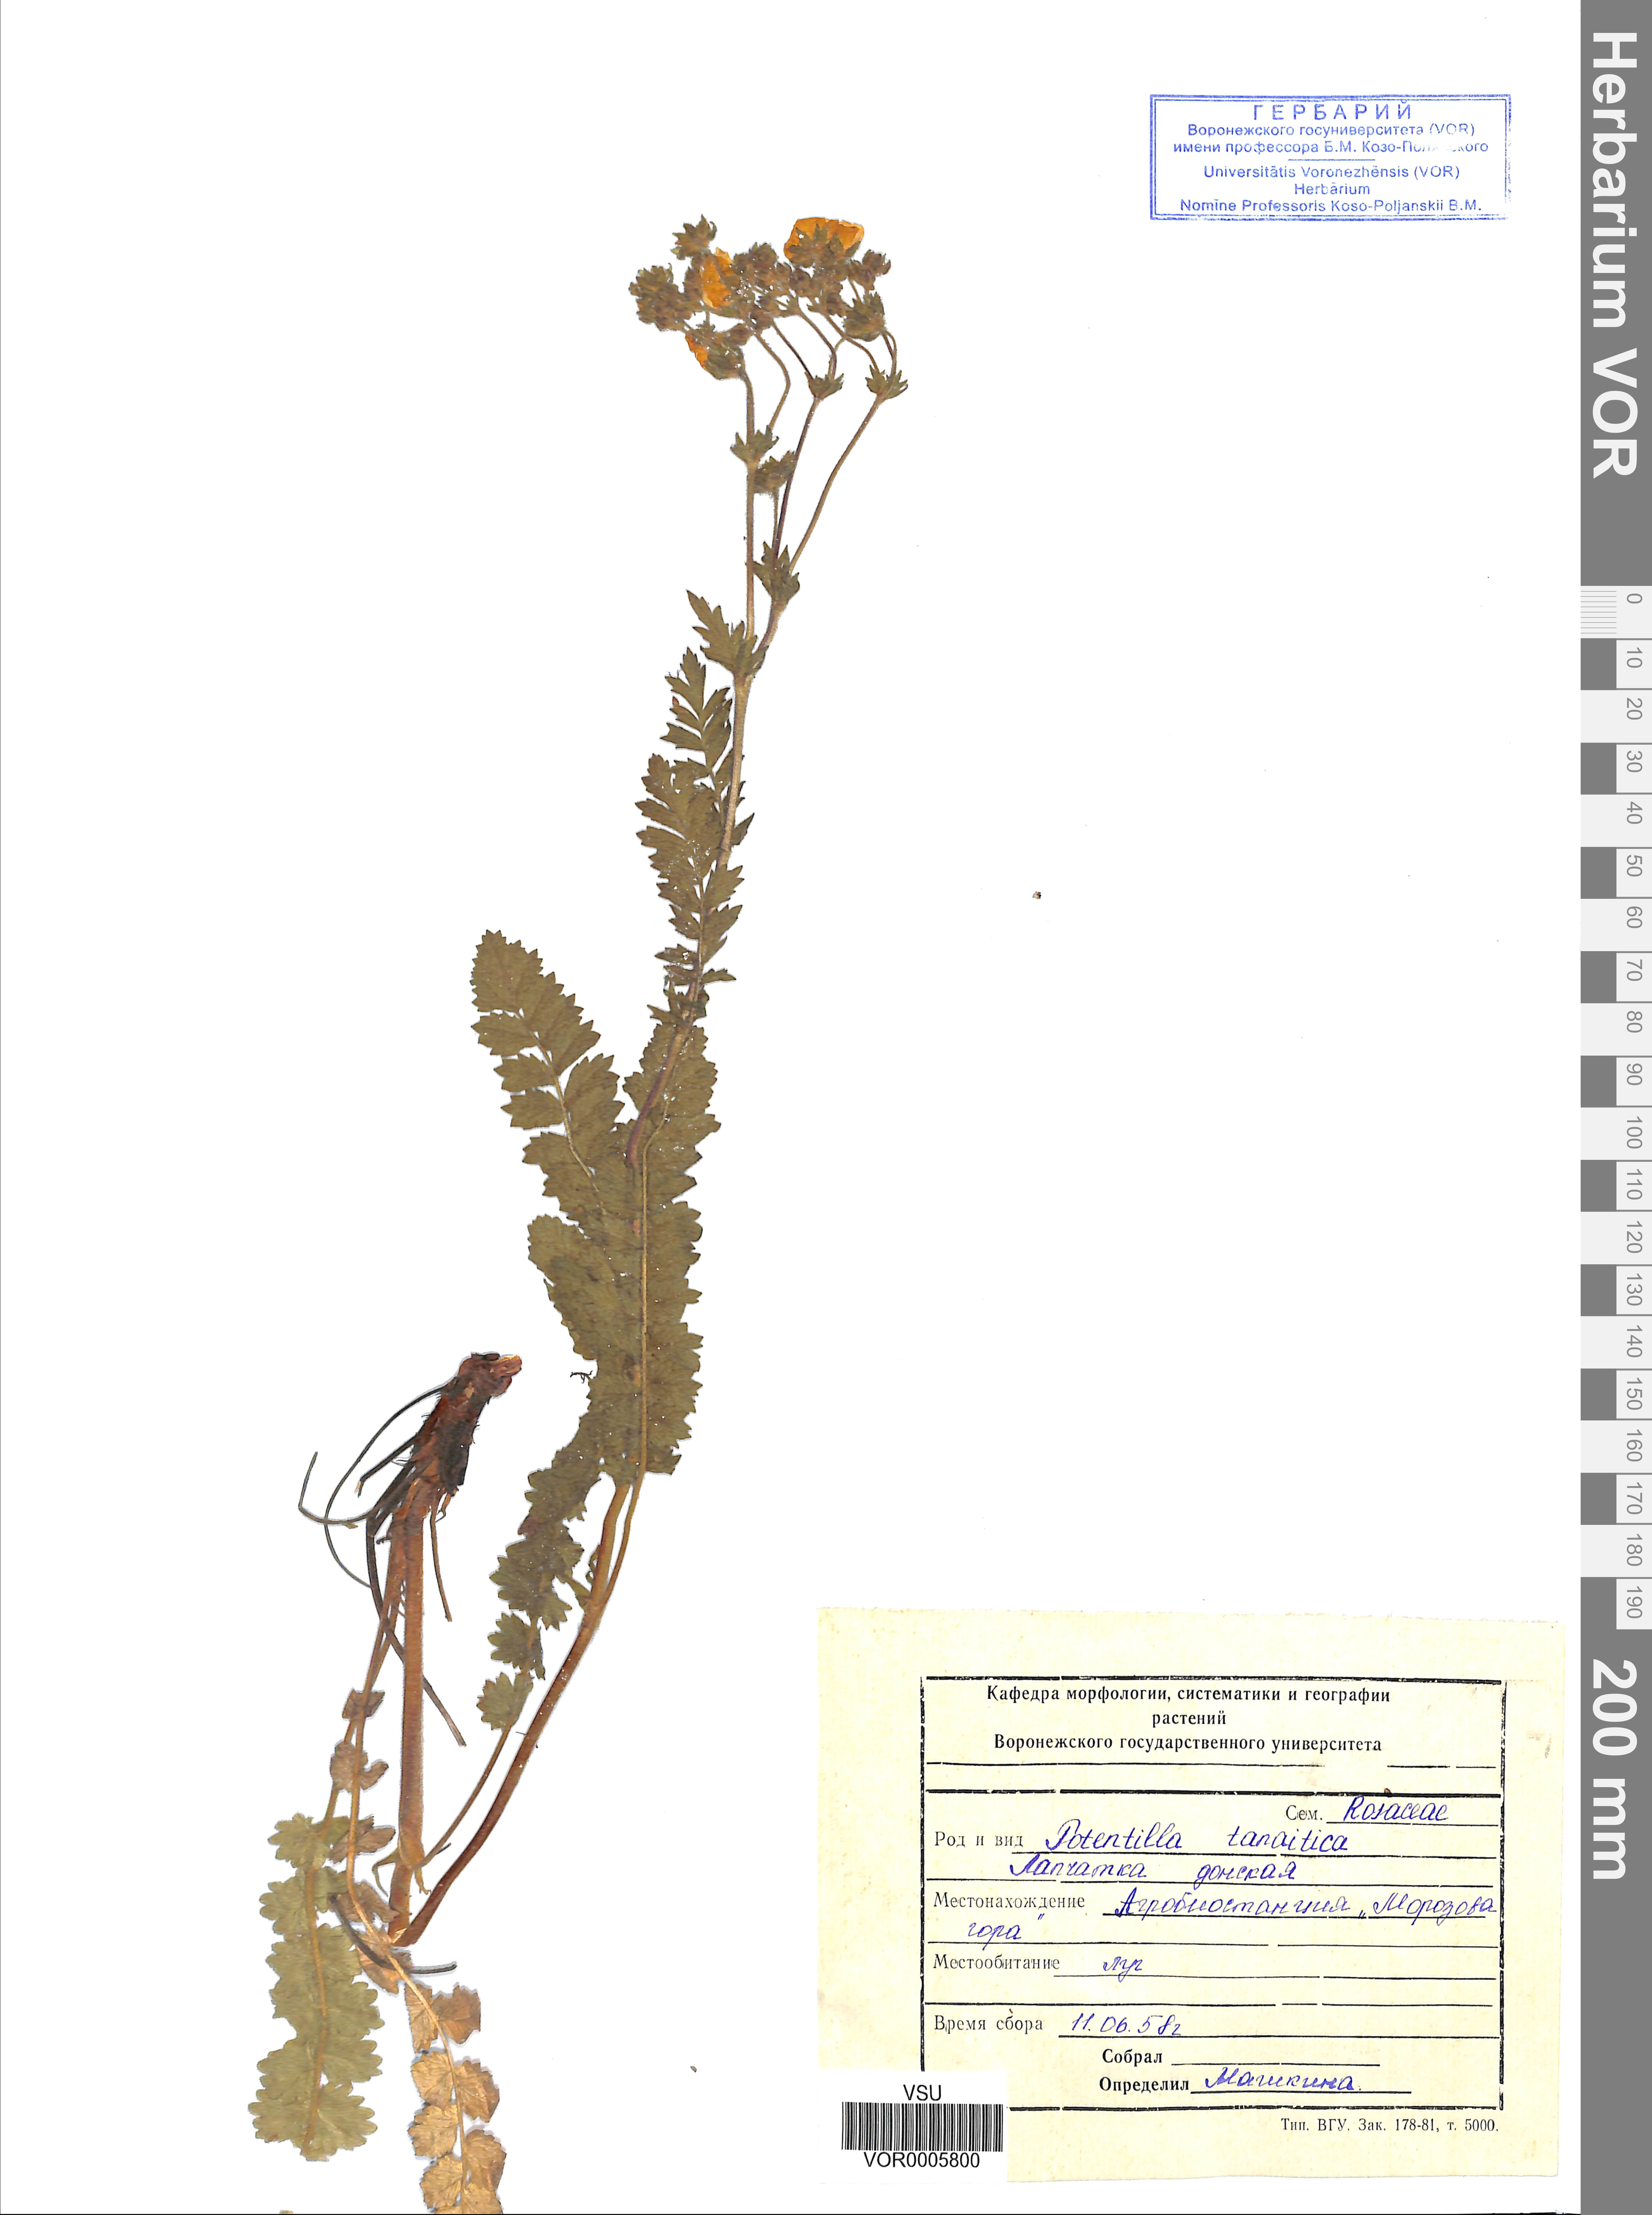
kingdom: Plantae
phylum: Tracheophyta
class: Magnoliopsida
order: Rosales
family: Rosaceae
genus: Potentilla
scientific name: Potentilla tanaitica
